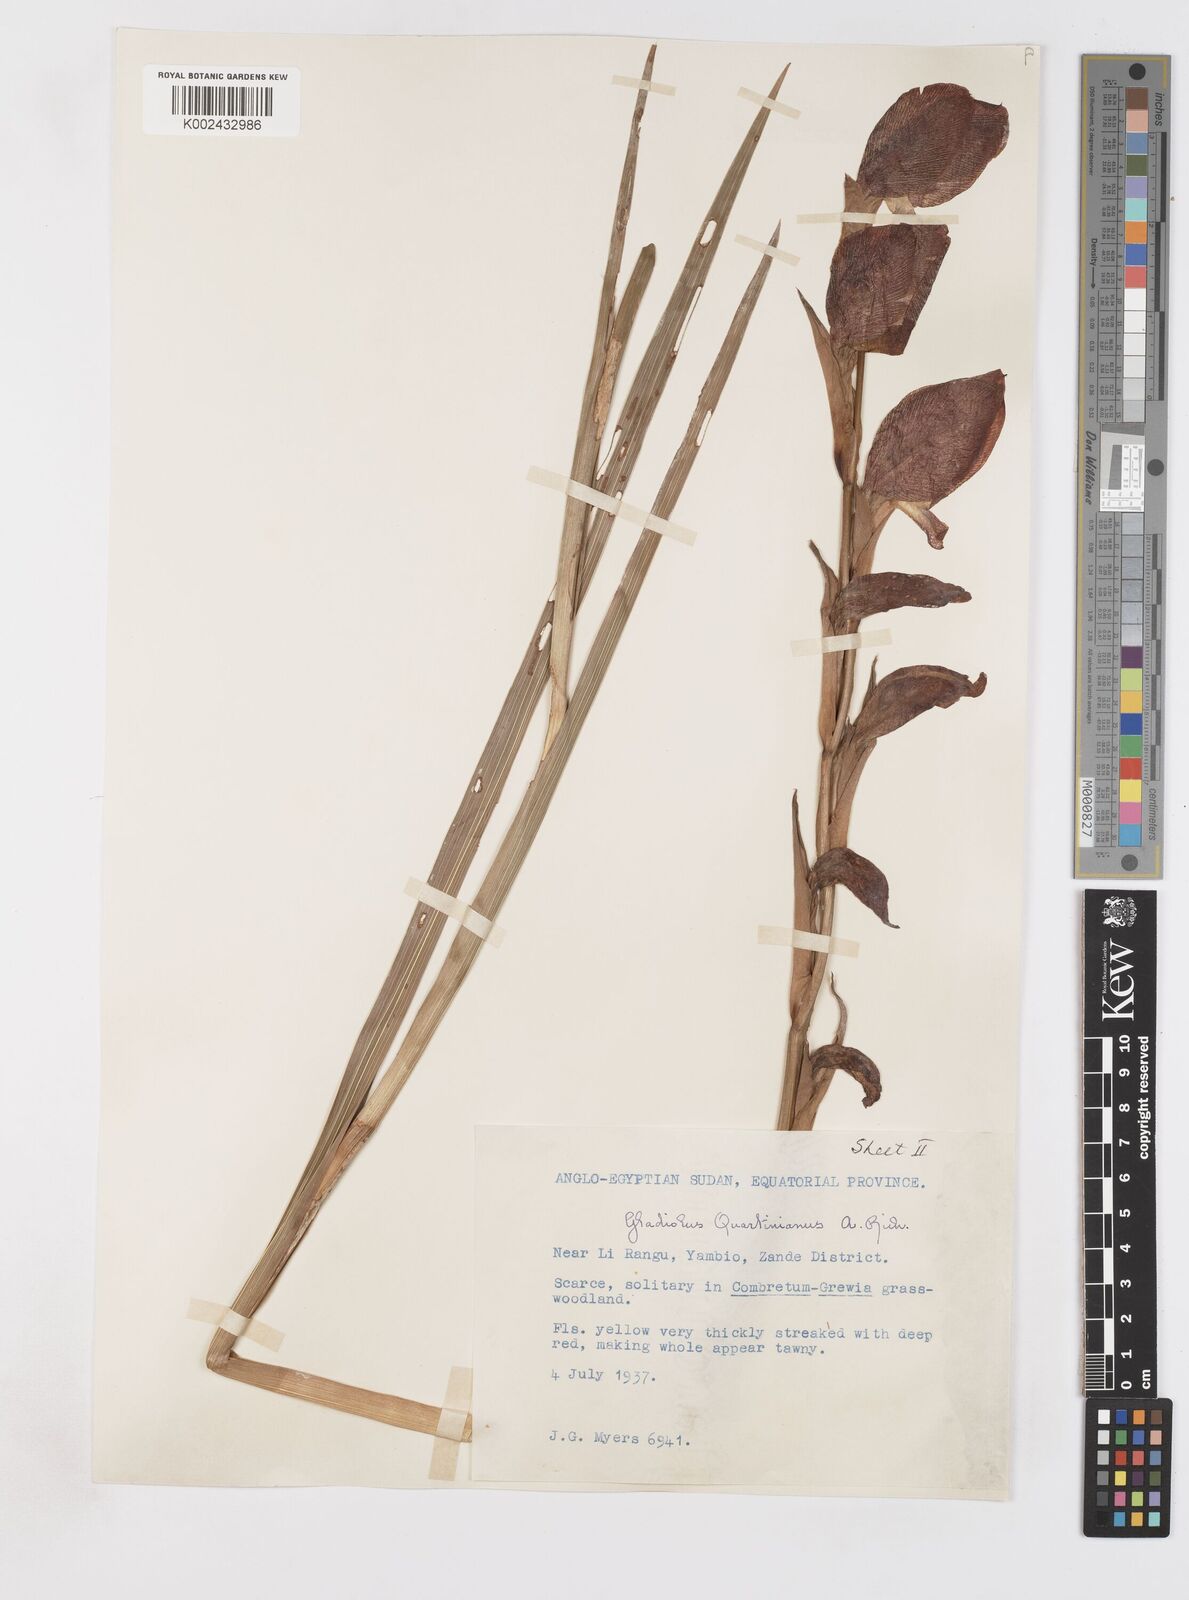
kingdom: Plantae
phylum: Tracheophyta
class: Liliopsida
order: Asparagales
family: Iridaceae
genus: Gladiolus
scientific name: Gladiolus dalenii
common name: Cornflag
